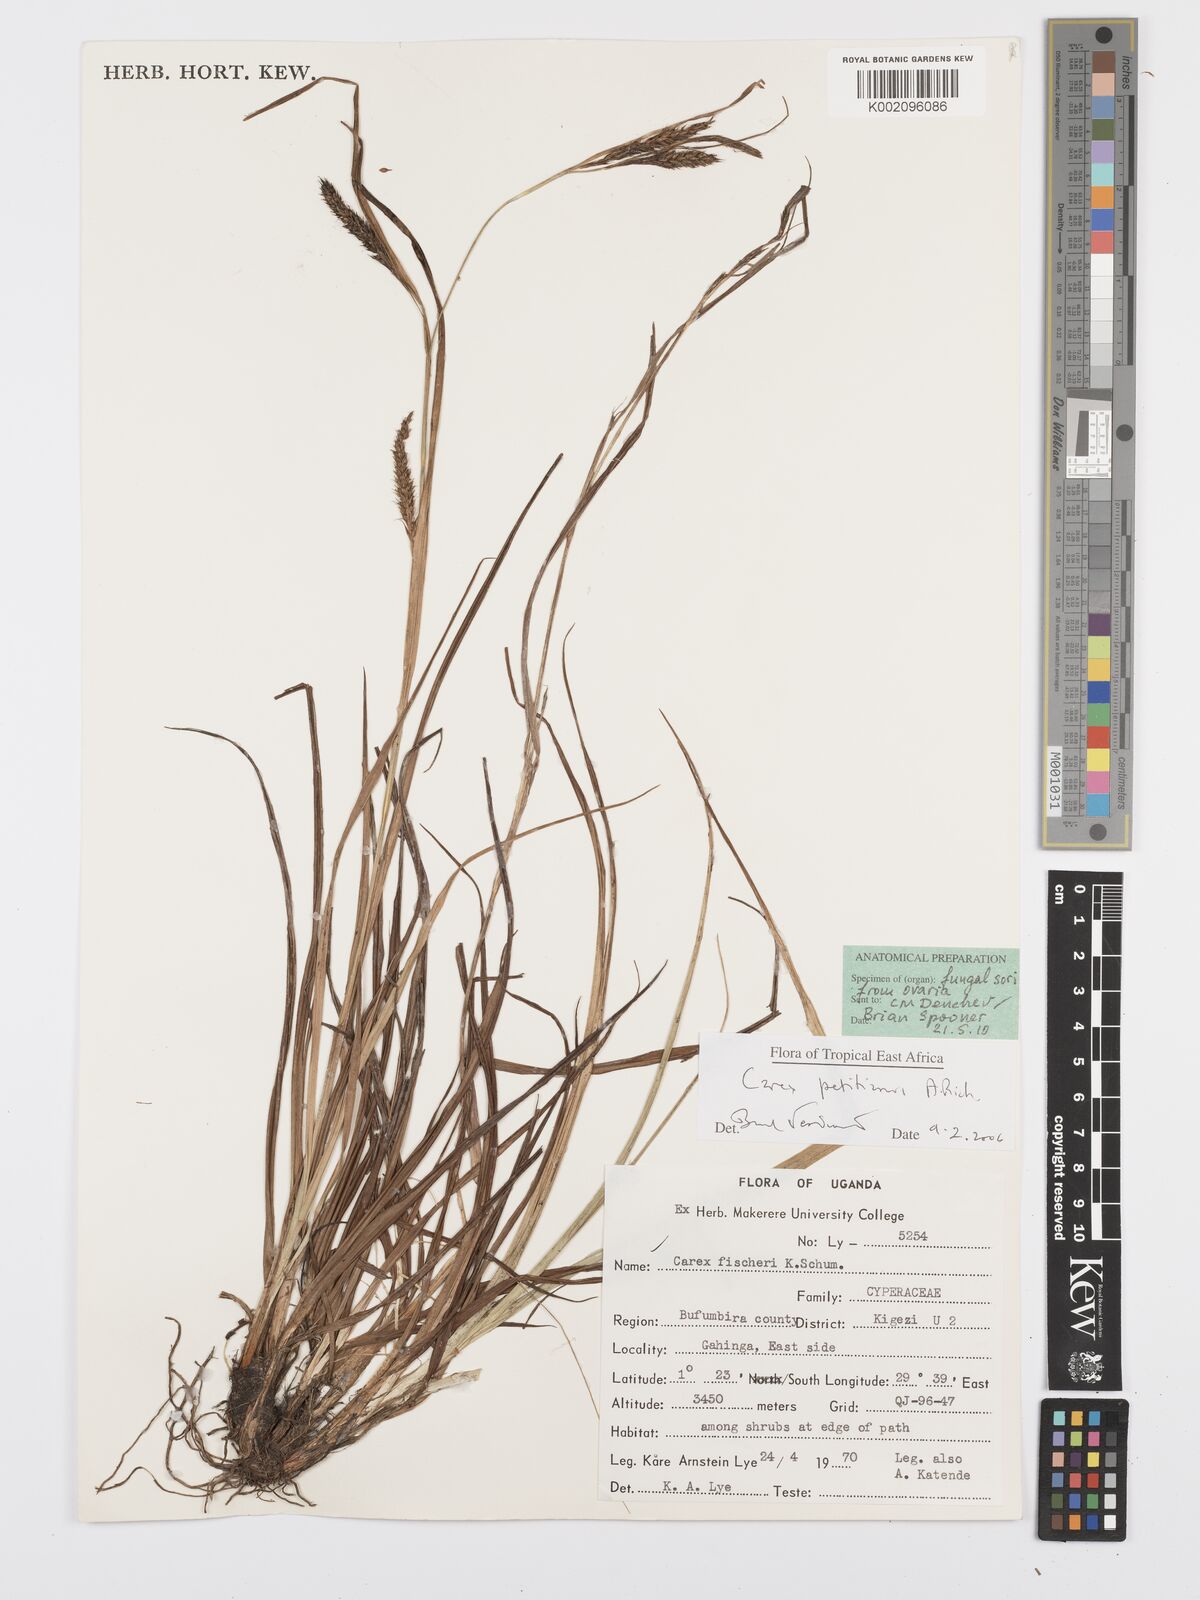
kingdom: Plantae
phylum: Tracheophyta
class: Liliopsida
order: Poales
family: Cyperaceae
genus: Carex
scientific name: Carex fischeri
